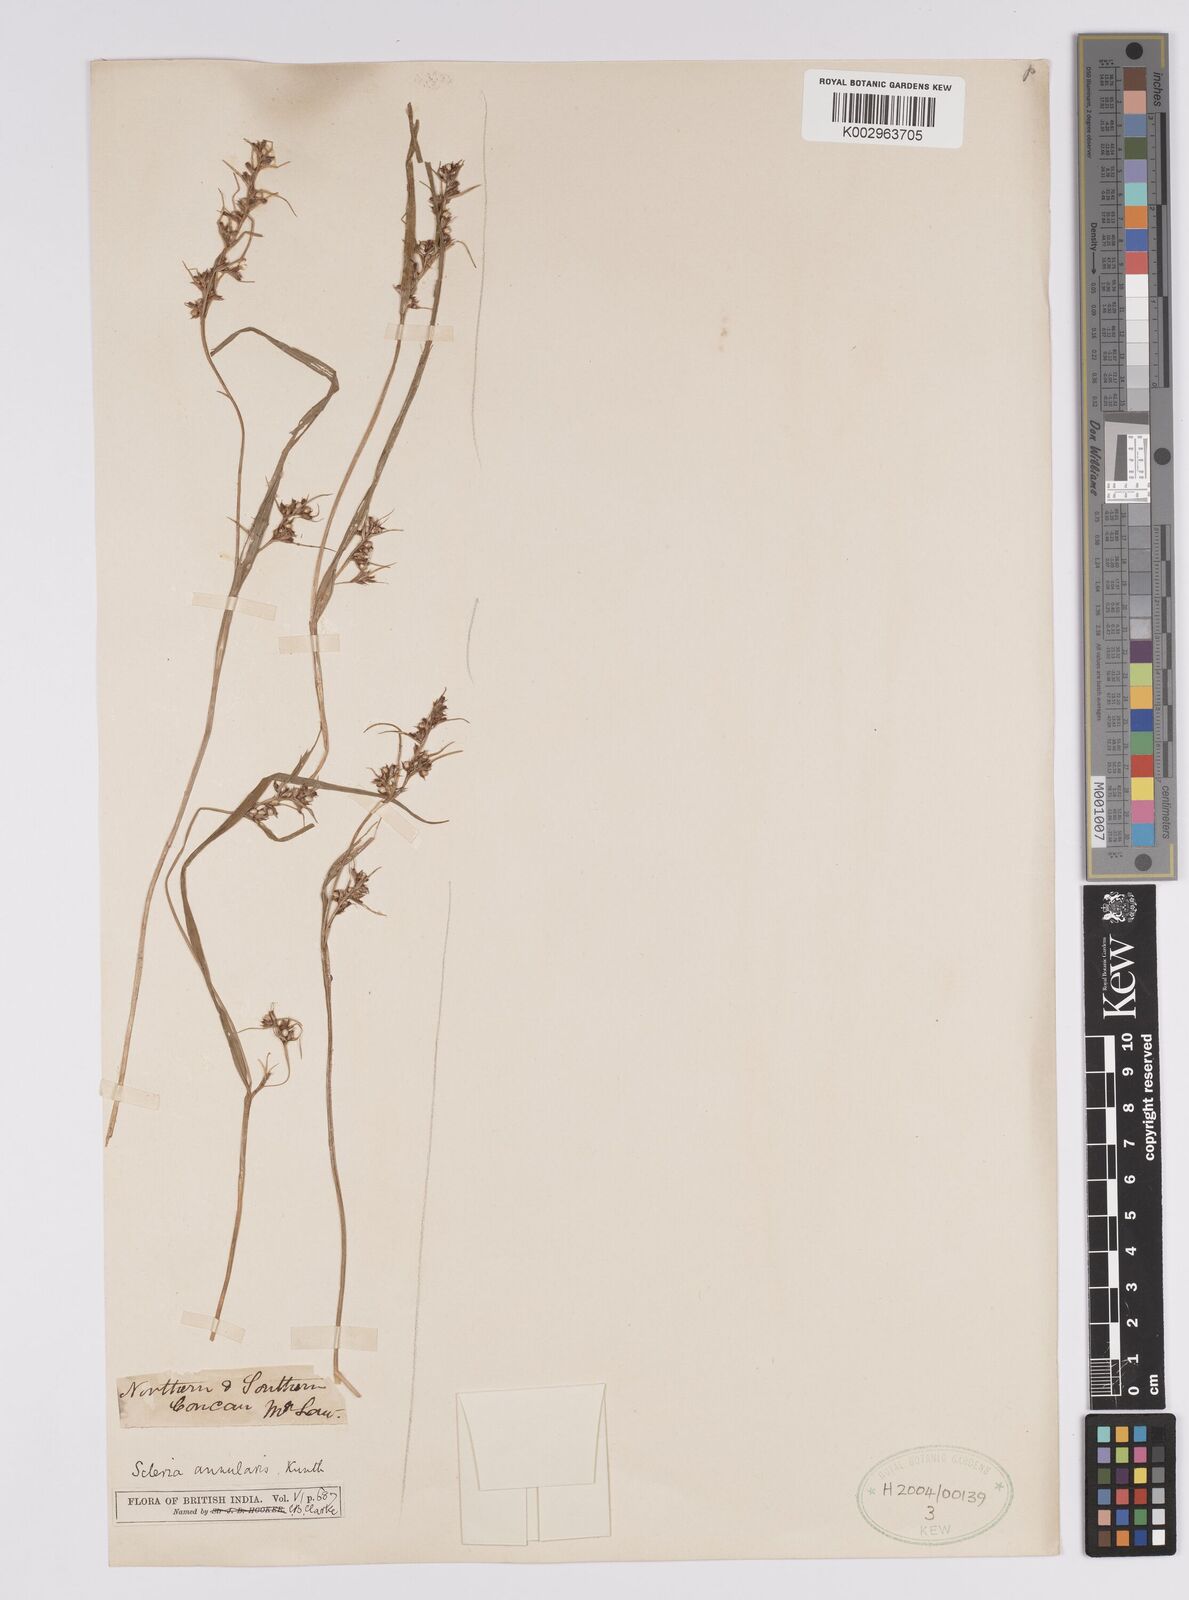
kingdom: Plantae
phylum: Tracheophyta
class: Liliopsida
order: Poales
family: Cyperaceae
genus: Scleria
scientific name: Scleria annularis
